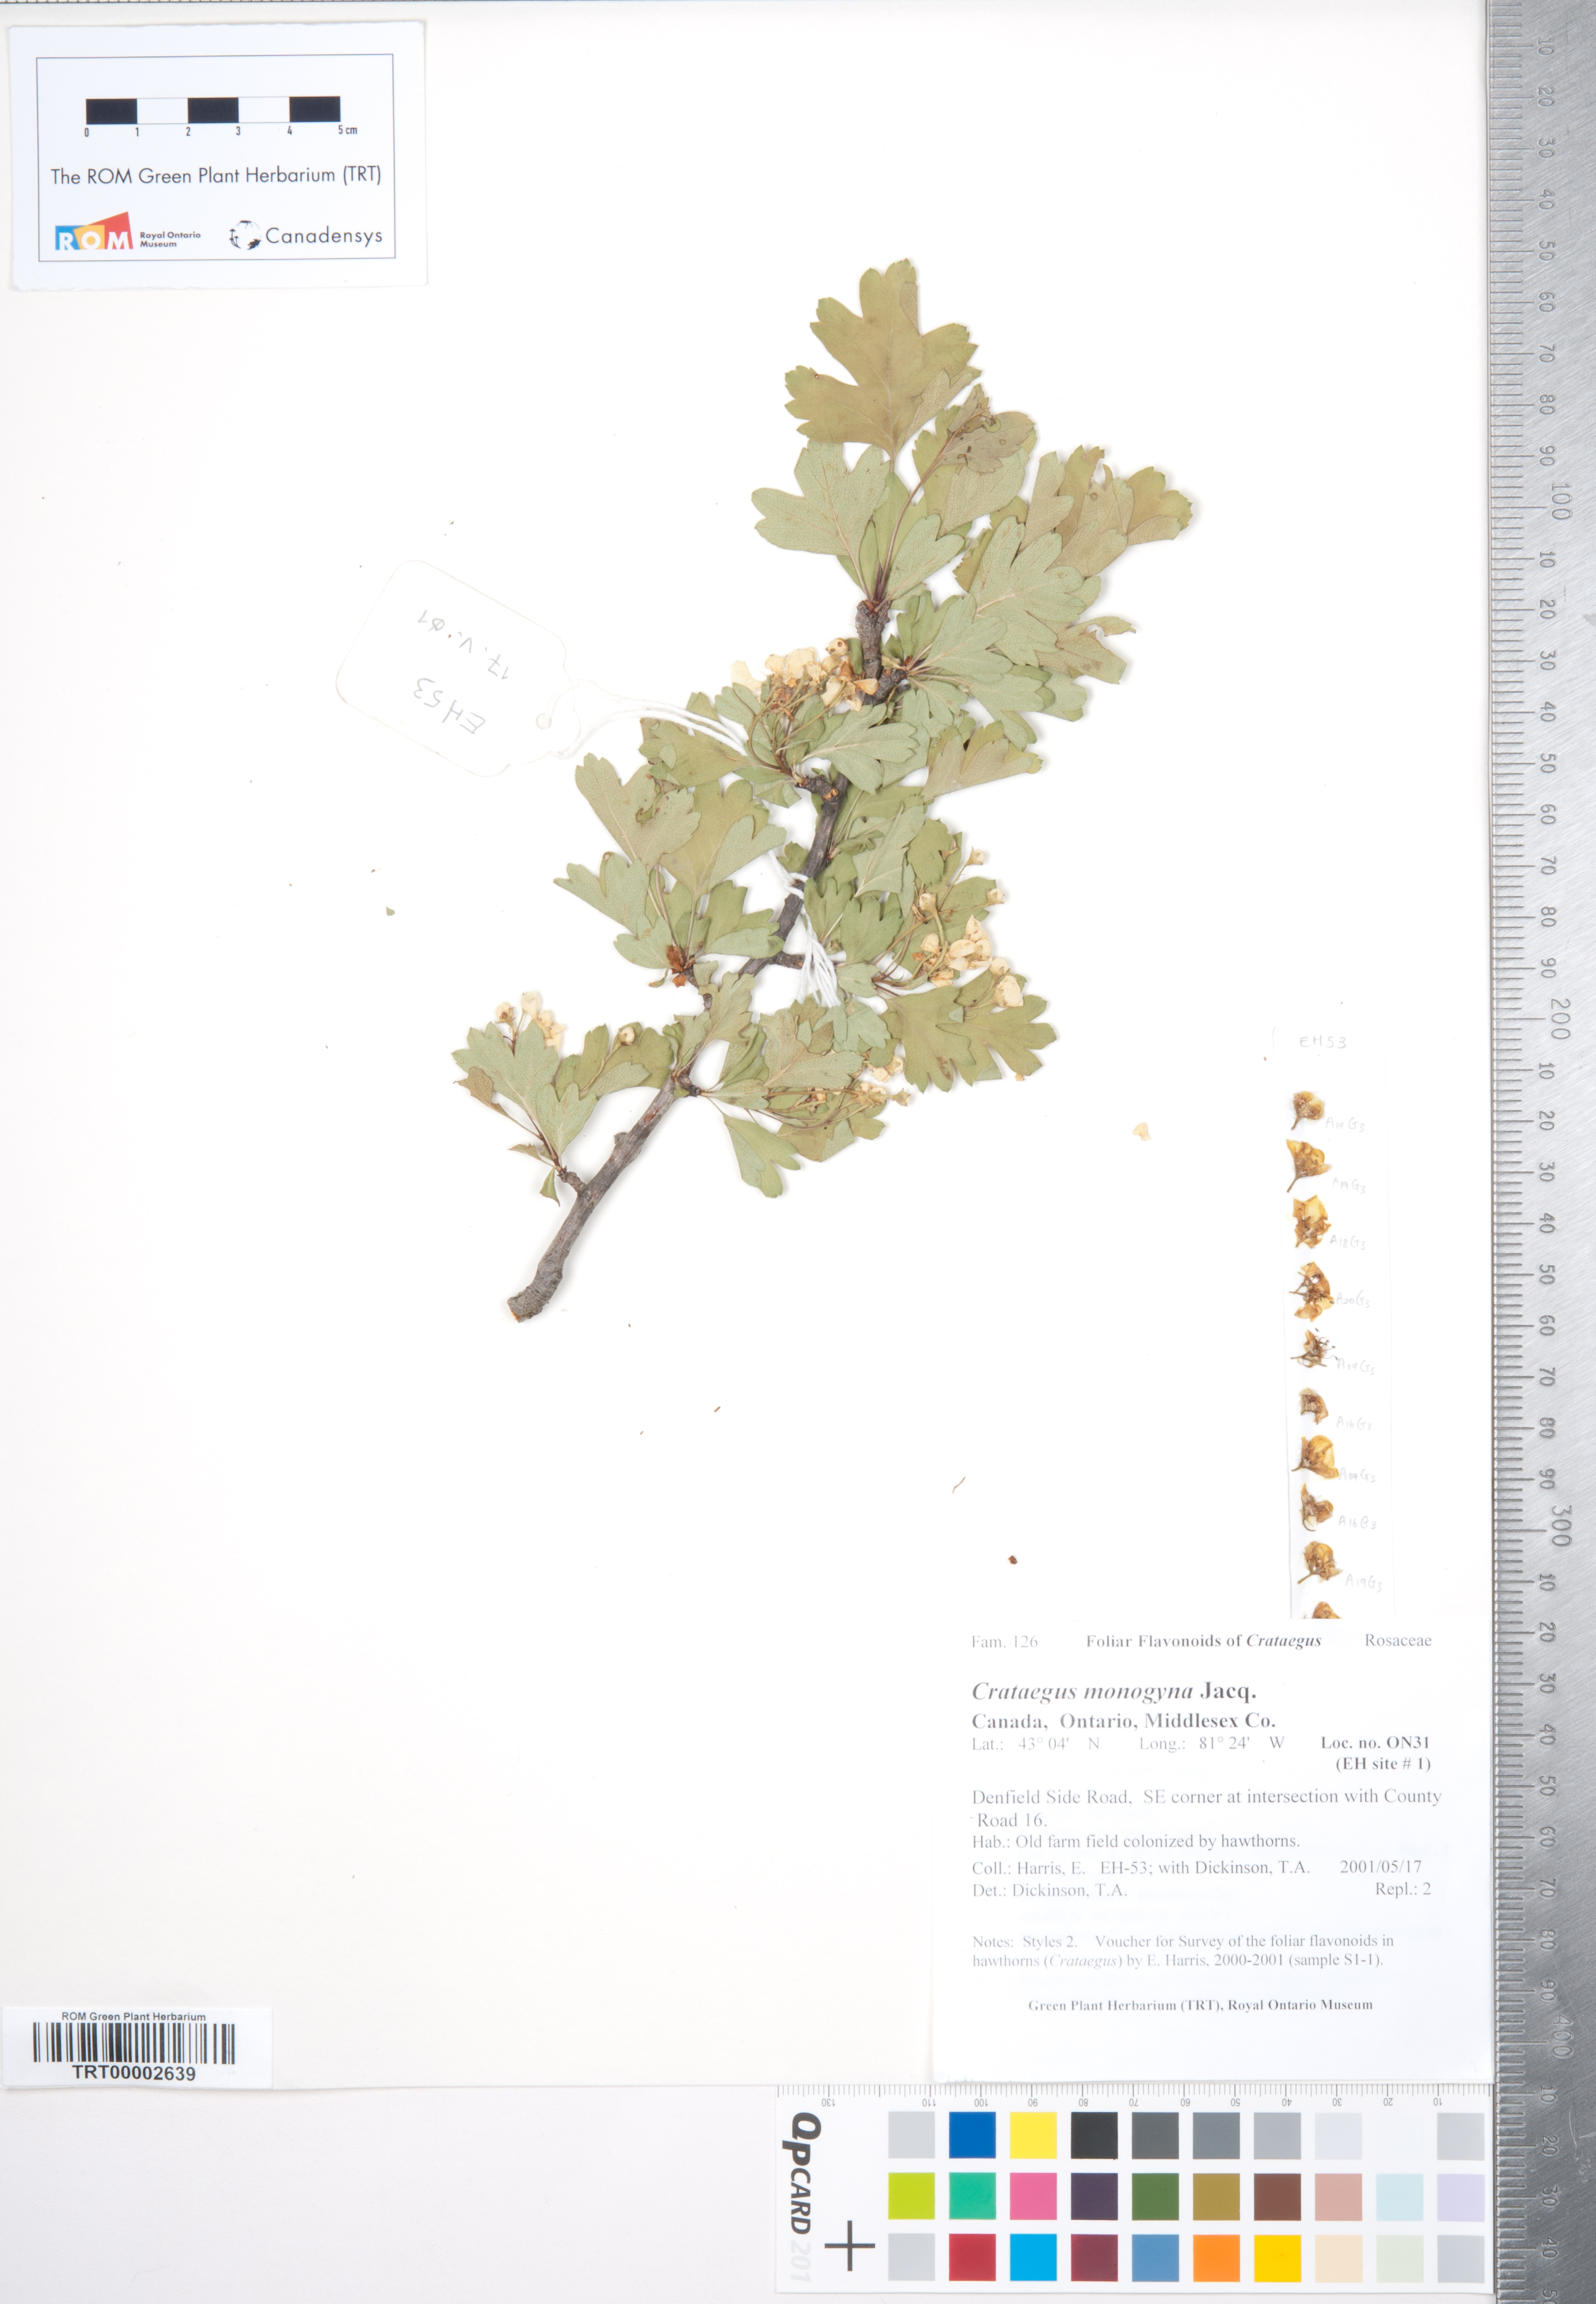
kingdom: Plantae
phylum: Tracheophyta
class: Magnoliopsida
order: Rosales
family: Rosaceae
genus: Crataegus
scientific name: Crataegus monogyna
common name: Hawthorn
